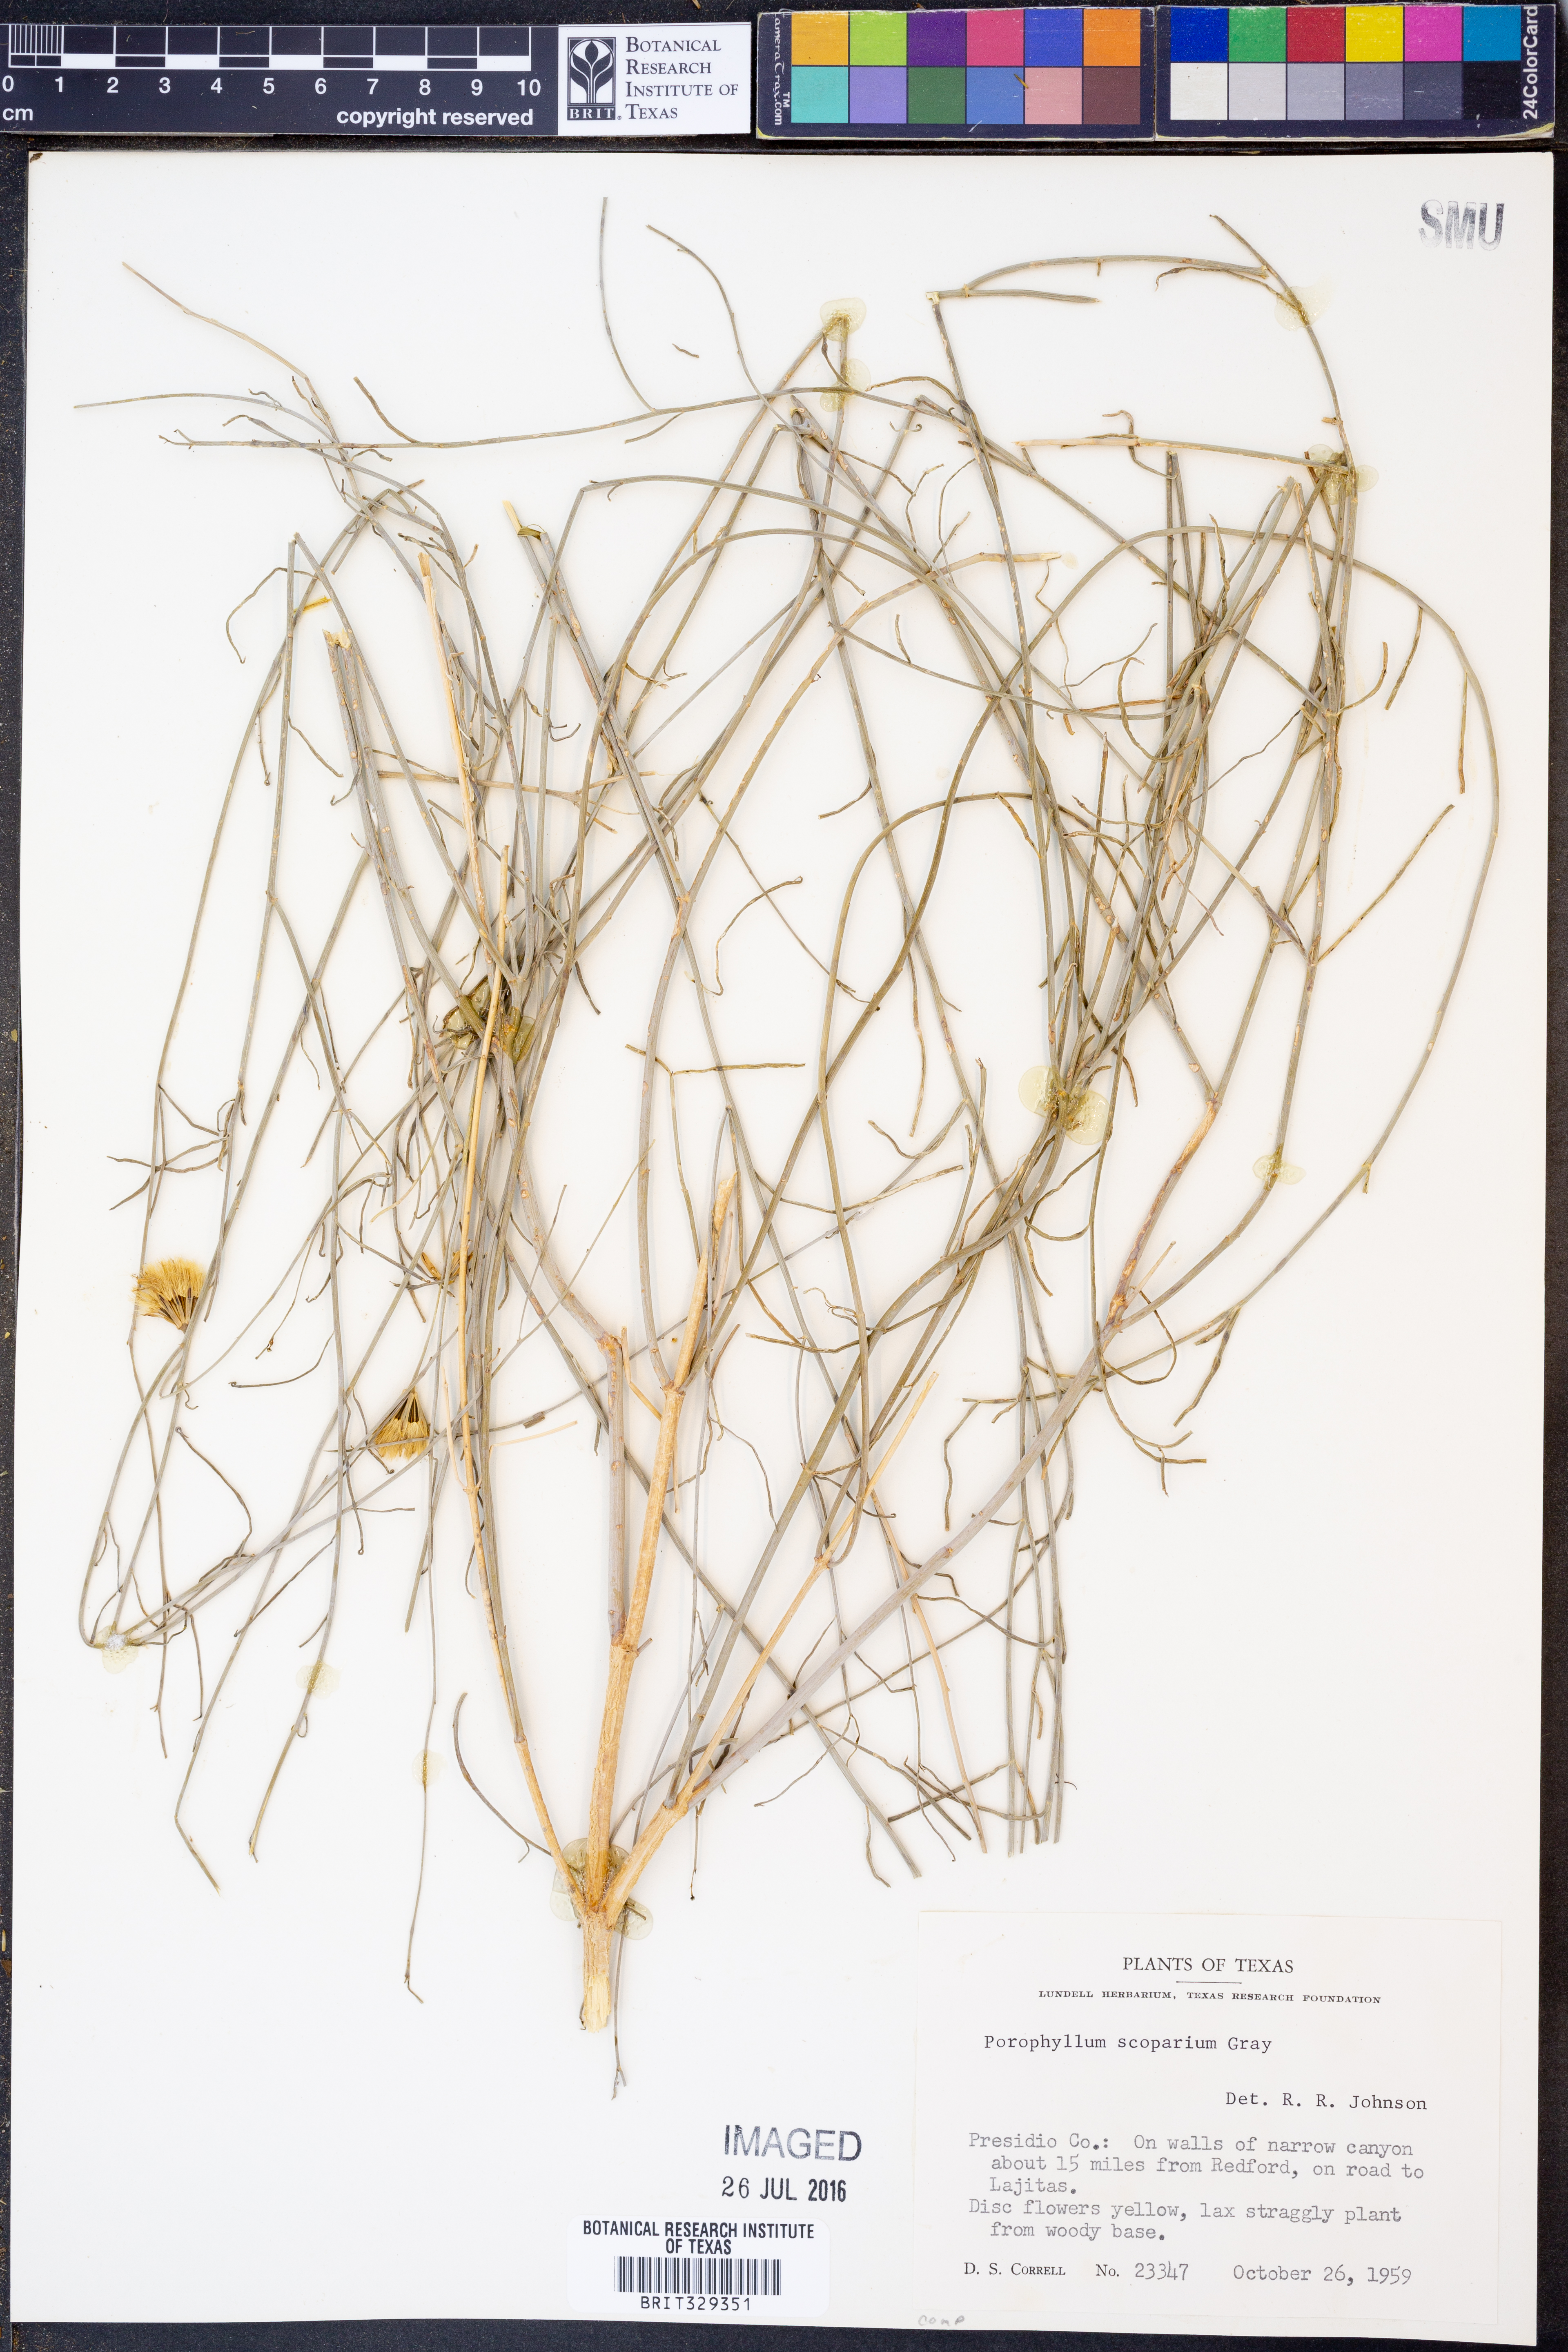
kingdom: Plantae
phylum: Tracheophyta
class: Magnoliopsida
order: Asterales
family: Asteraceae
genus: Porophyllum
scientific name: Porophyllum scoparium
